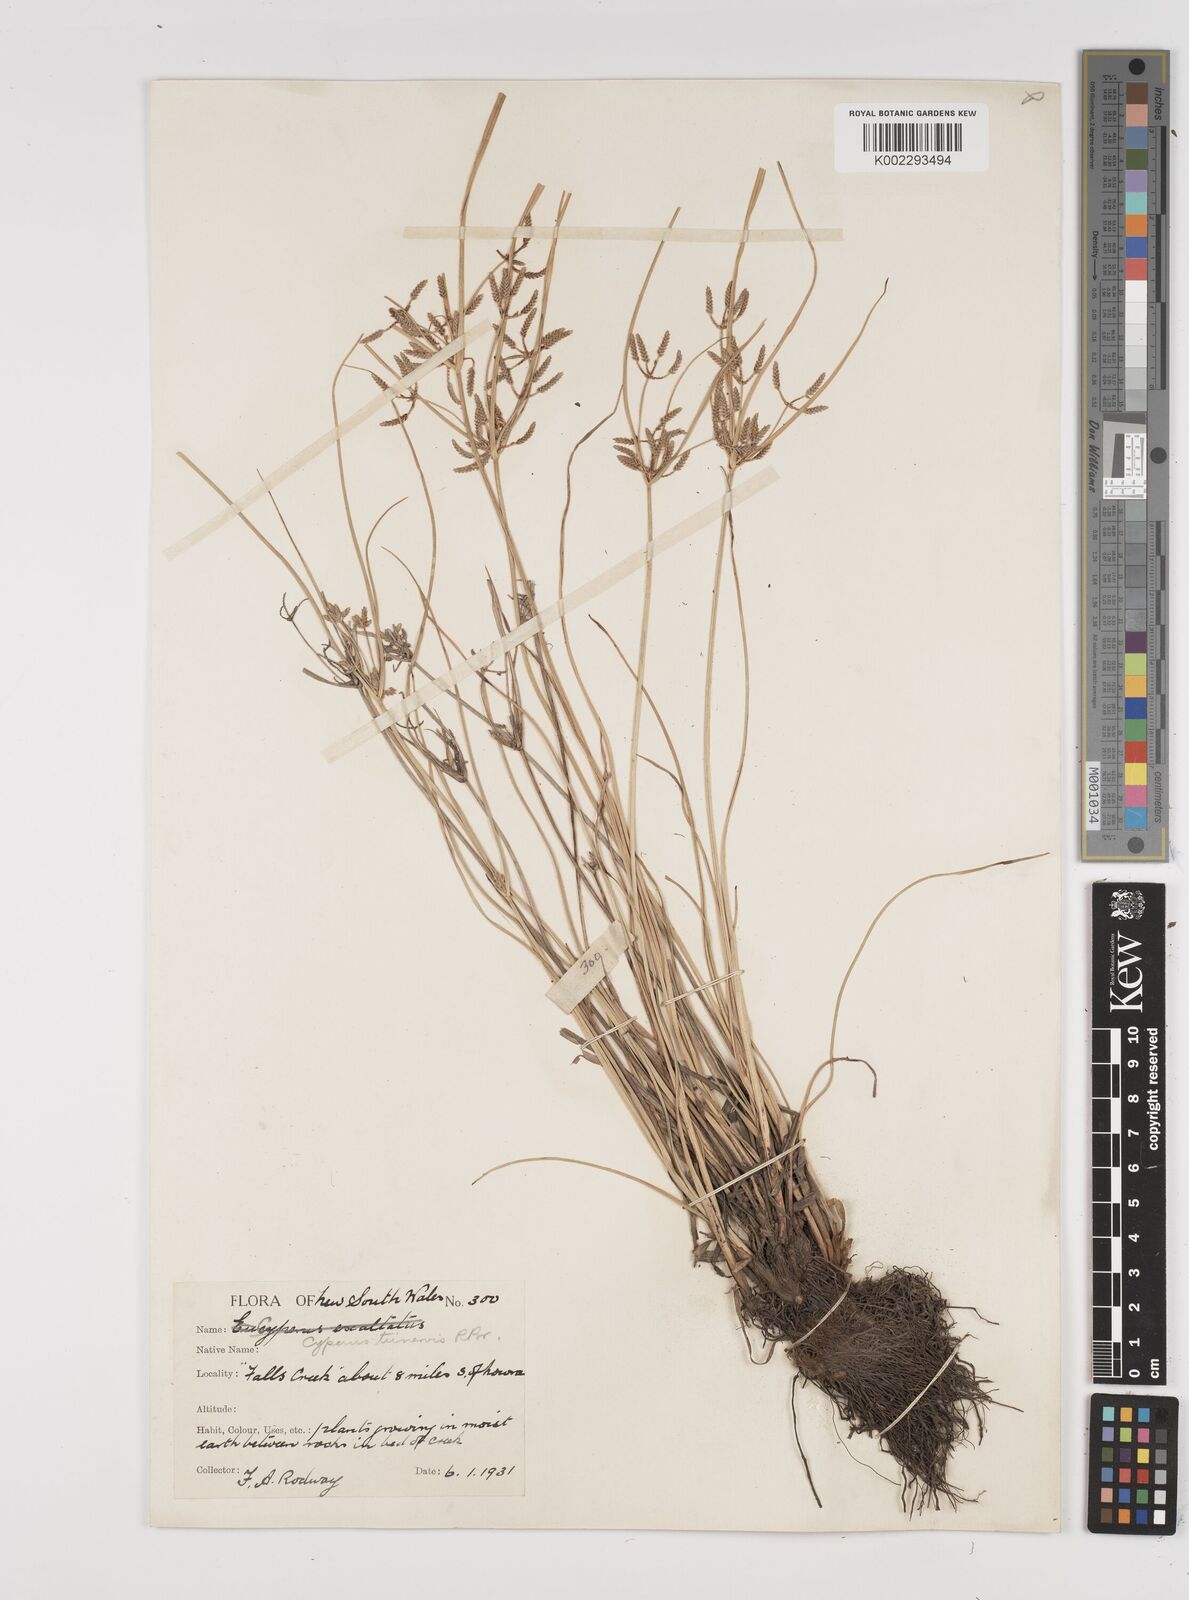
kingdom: Plantae
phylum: Tracheophyta
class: Liliopsida
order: Poales
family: Cyperaceae
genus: Cyperus
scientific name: Cyperus trinervis
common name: Australian flatsedge
